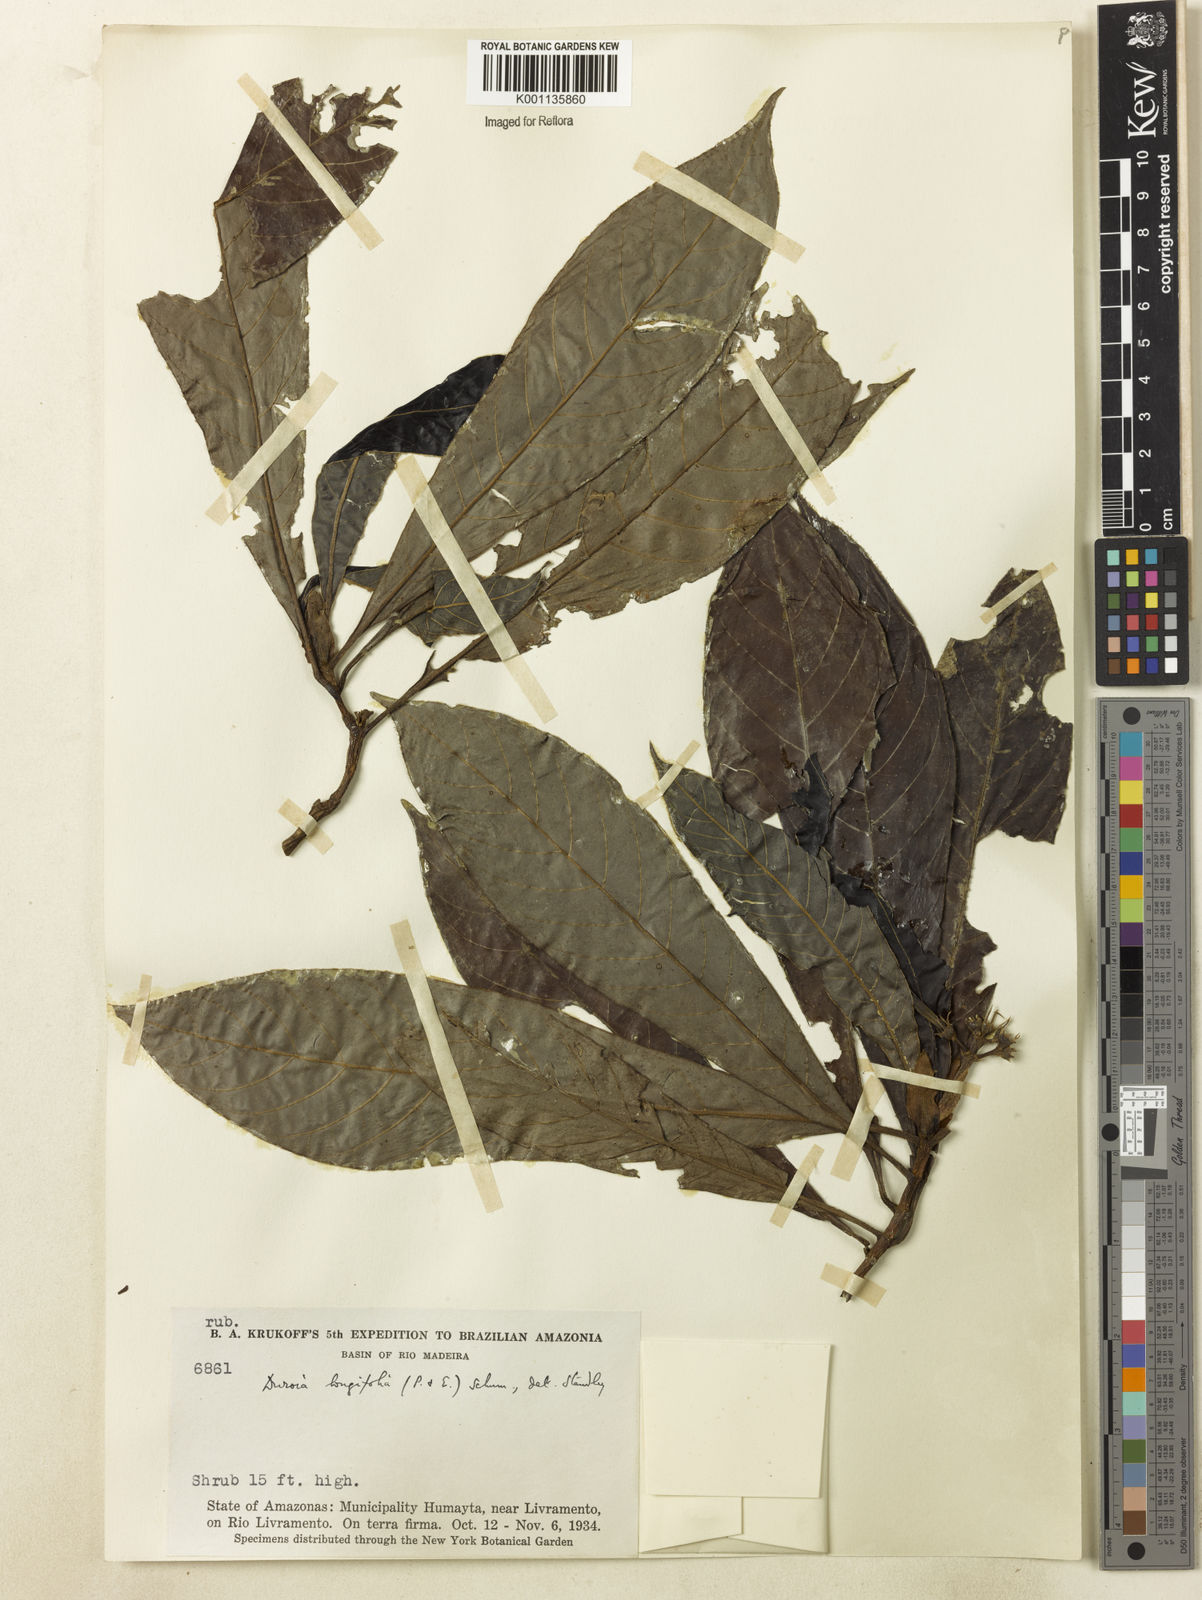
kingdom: Plantae
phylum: Tracheophyta
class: Magnoliopsida
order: Gentianales
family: Rubiaceae
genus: Duroia
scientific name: Duroia longifolia
